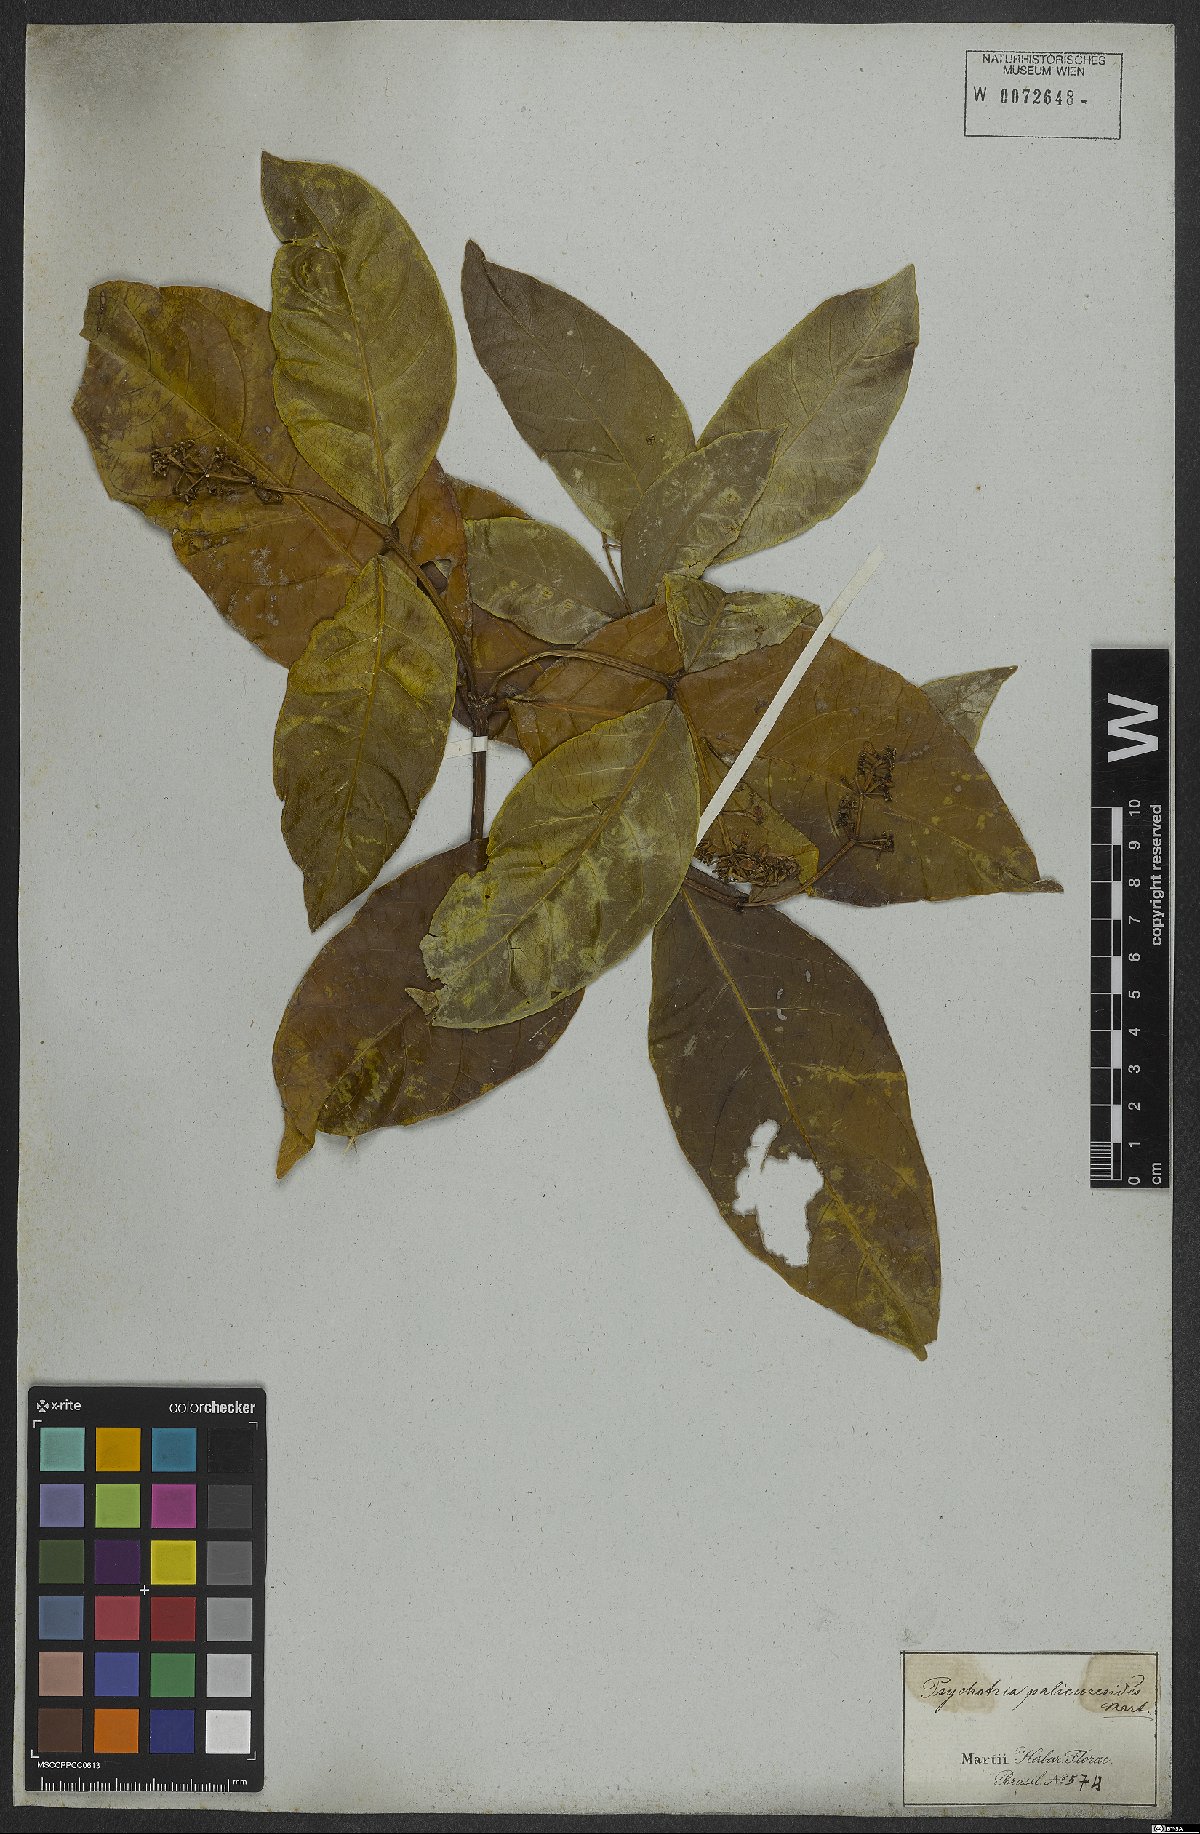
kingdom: Plantae
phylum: Tracheophyta
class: Magnoliopsida
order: Gentianales
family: Rubiaceae
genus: Rudgea
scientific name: Rudgea palicoureoides
